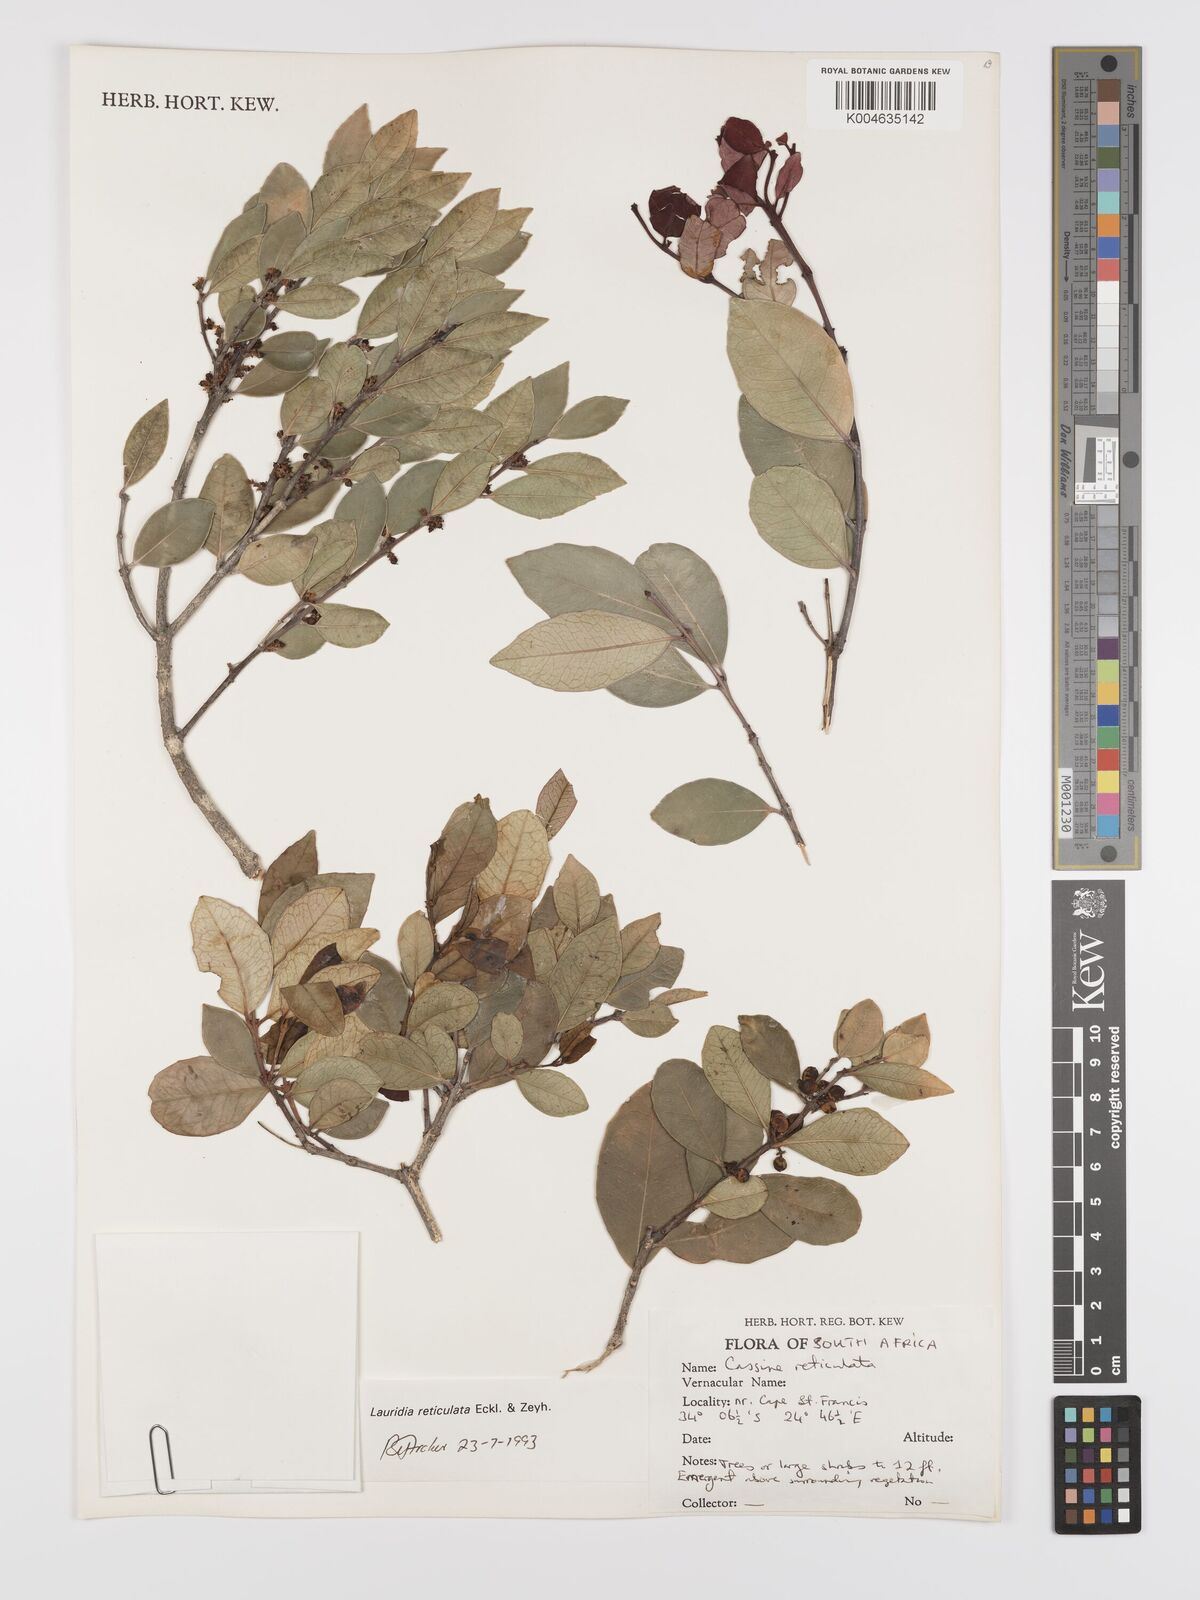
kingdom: Plantae
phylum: Tracheophyta
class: Magnoliopsida
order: Celastrales
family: Celastraceae
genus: Lauridia
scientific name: Lauridia reticulata
